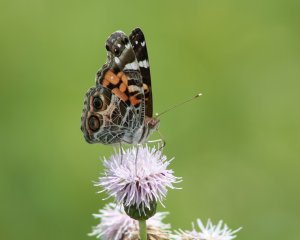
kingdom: Animalia
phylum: Arthropoda
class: Insecta
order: Lepidoptera
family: Nymphalidae
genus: Vanessa
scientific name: Vanessa virginiensis
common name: American Lady
